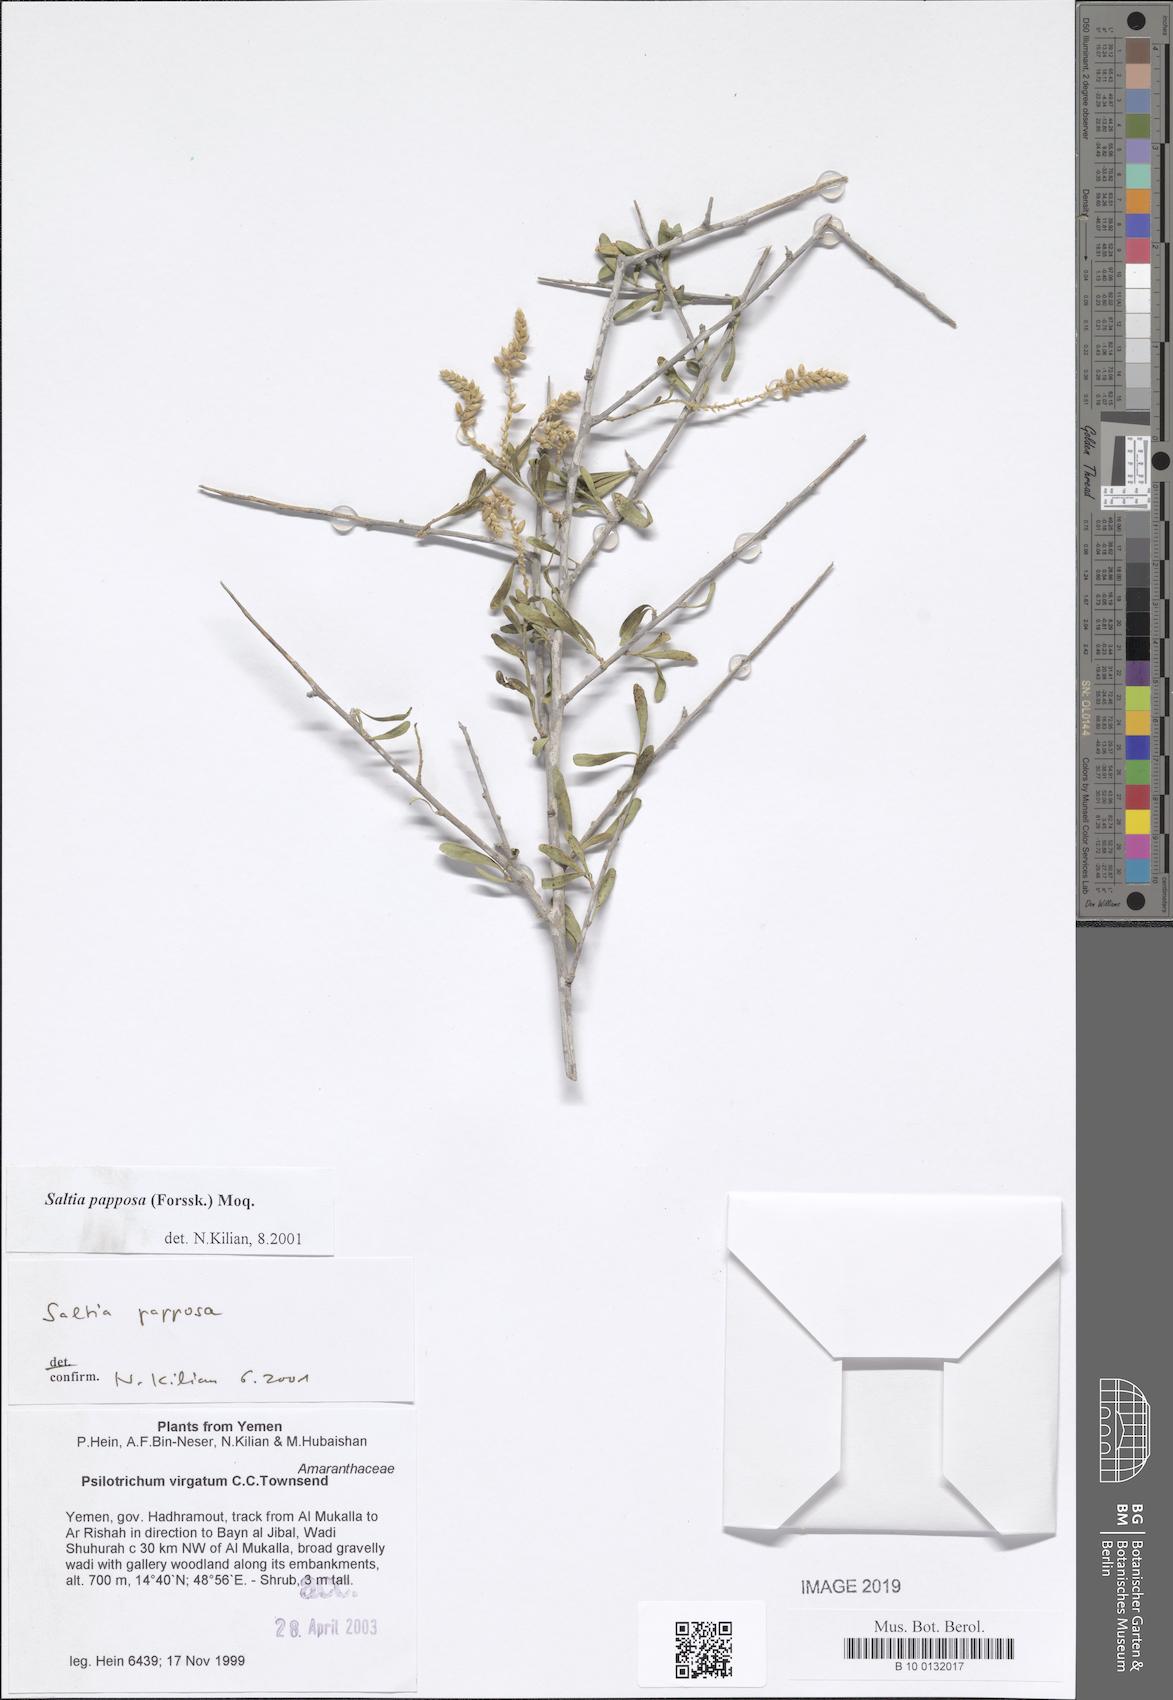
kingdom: Plantae
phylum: Tracheophyta
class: Magnoliopsida
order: Caryophyllales
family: Amaranthaceae
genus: Saltia
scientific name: Saltia papposa
